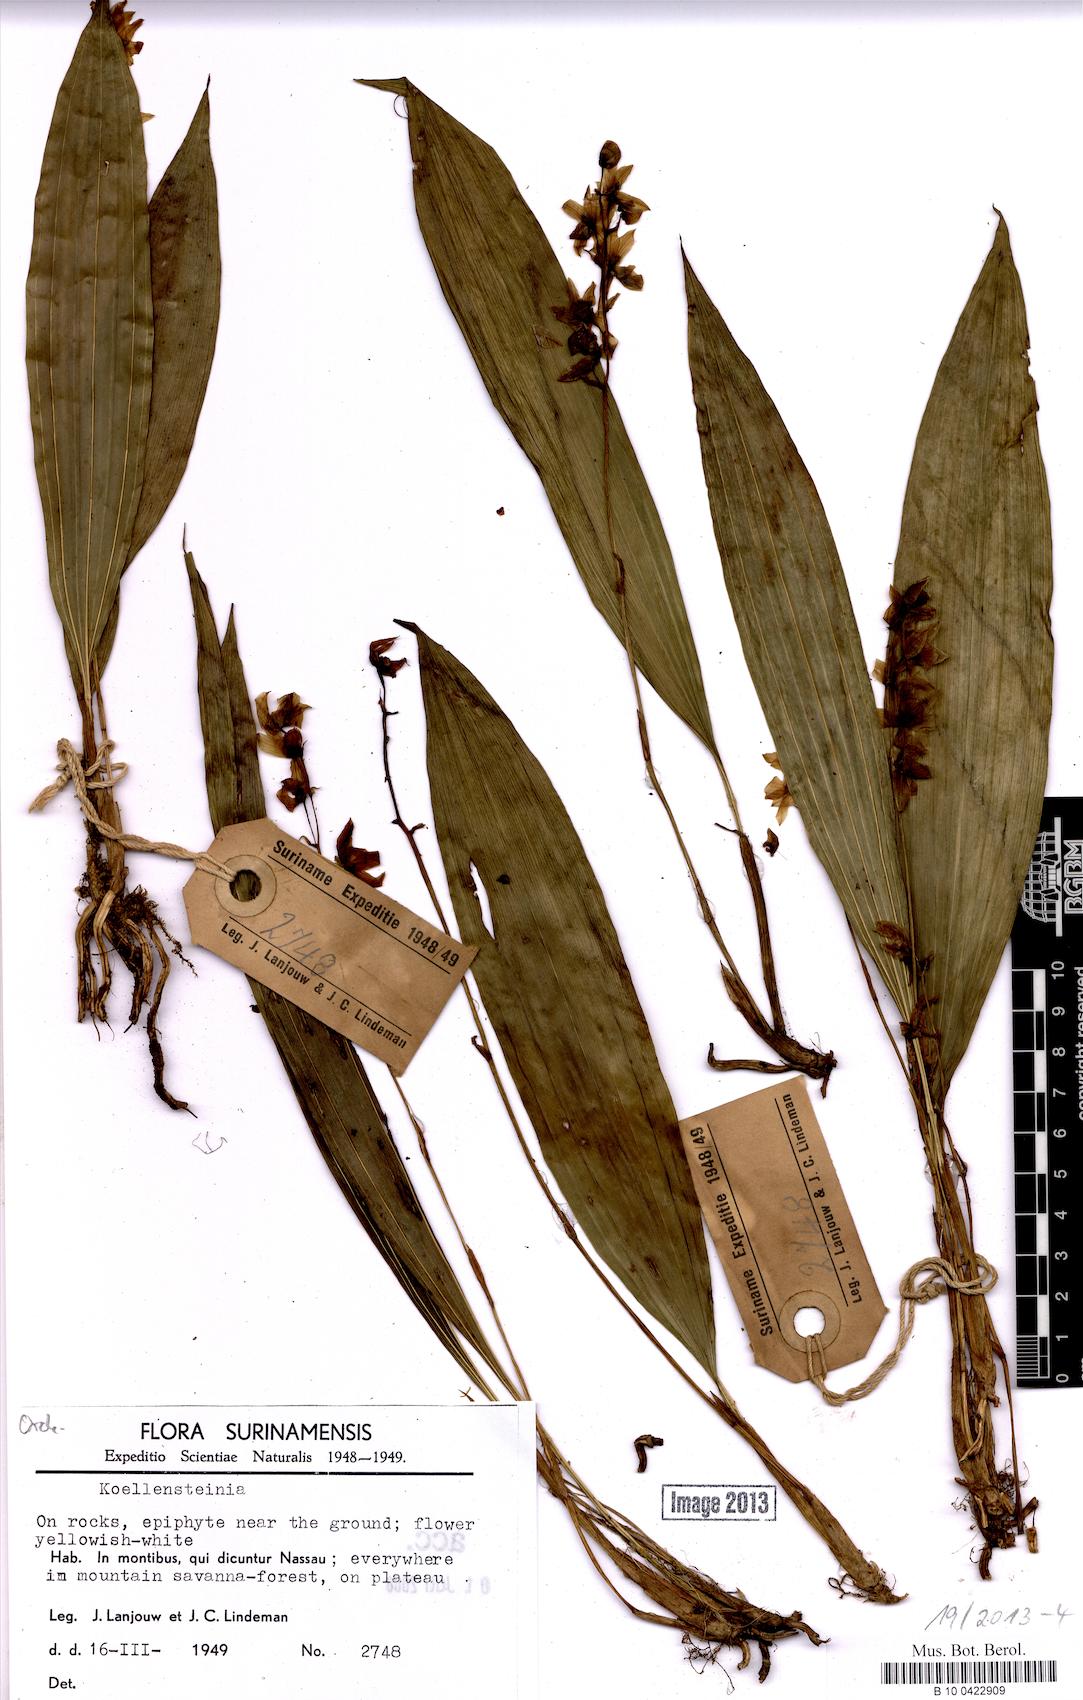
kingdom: Plantae
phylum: Tracheophyta
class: Liliopsida
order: Asparagales
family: Orchidaceae
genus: Koellensteinia
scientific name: Koellensteinia
